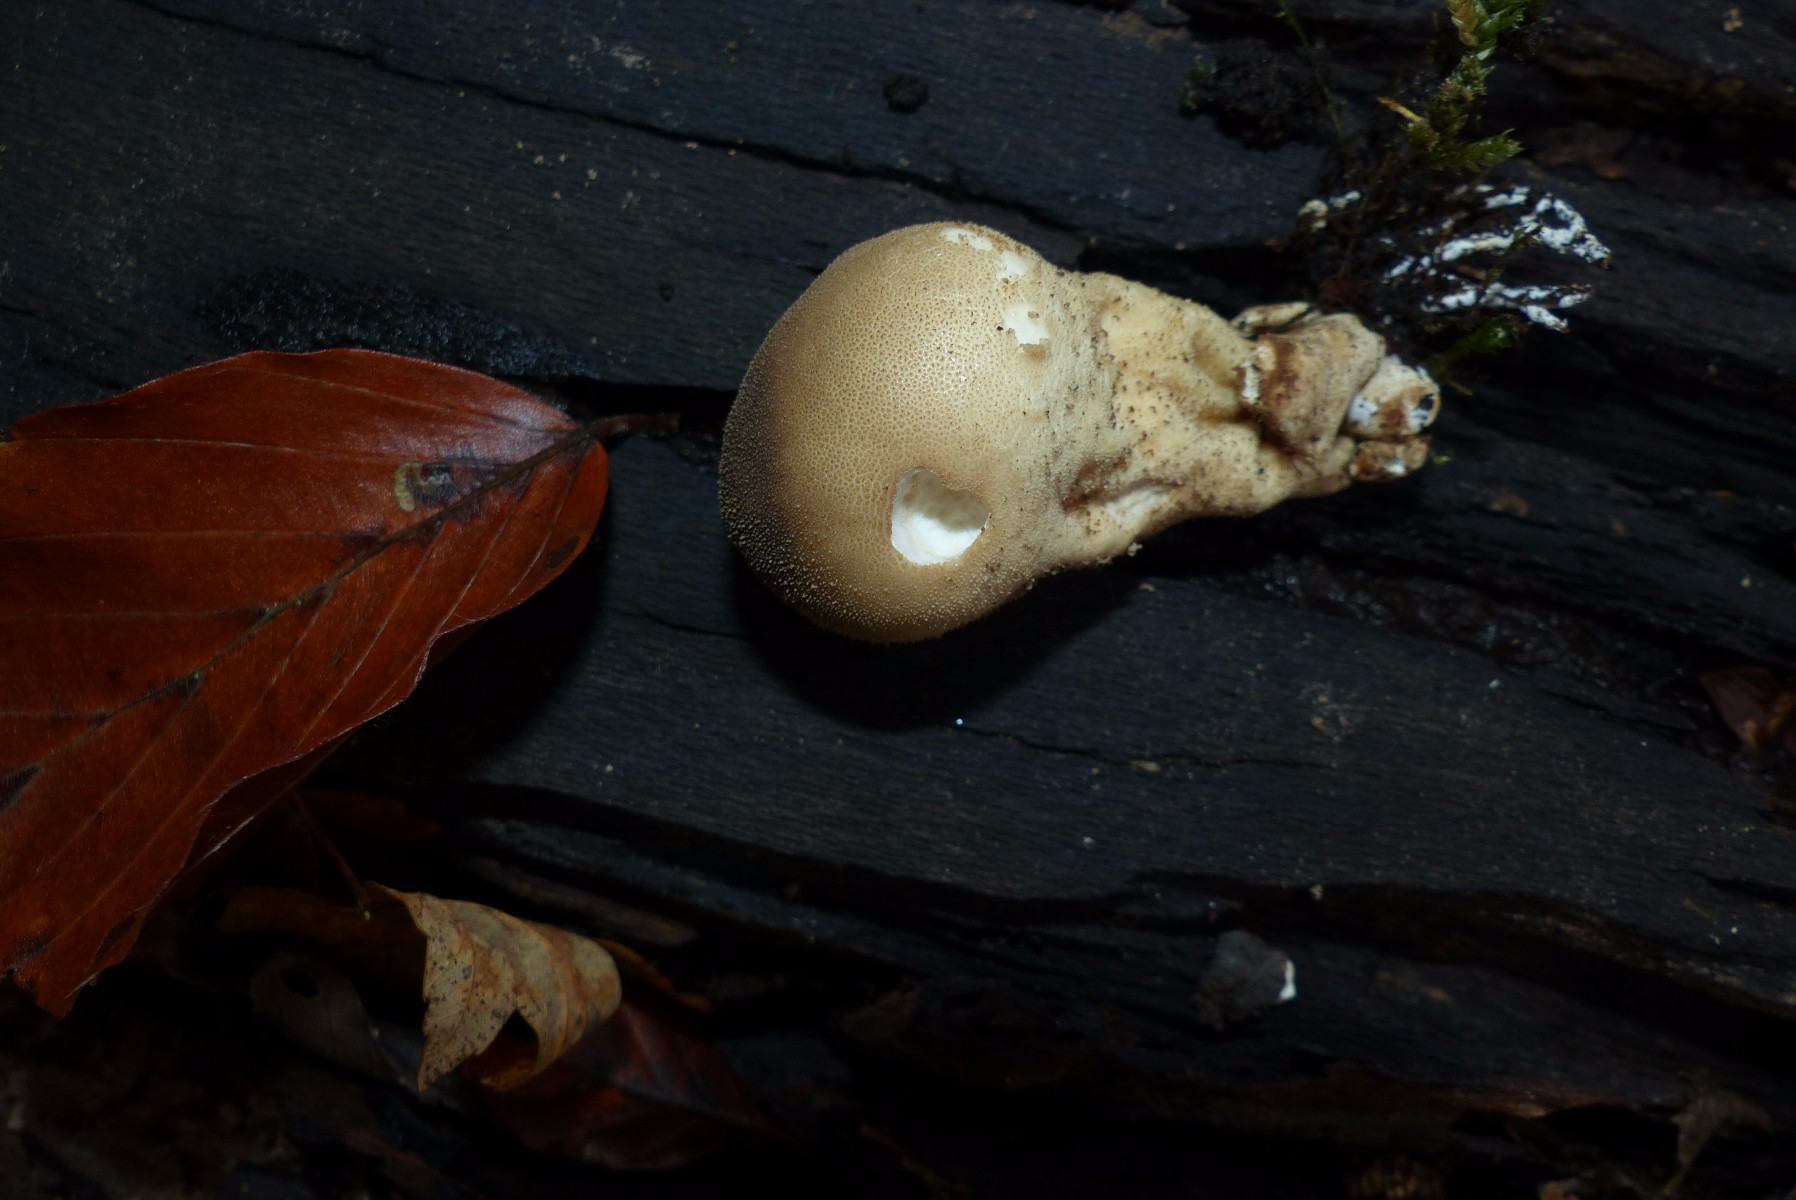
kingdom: Fungi
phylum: Basidiomycota
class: Agaricomycetes
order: Agaricales
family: Lycoperdaceae
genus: Apioperdon
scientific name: Apioperdon pyriforme
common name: pære-støvbold
